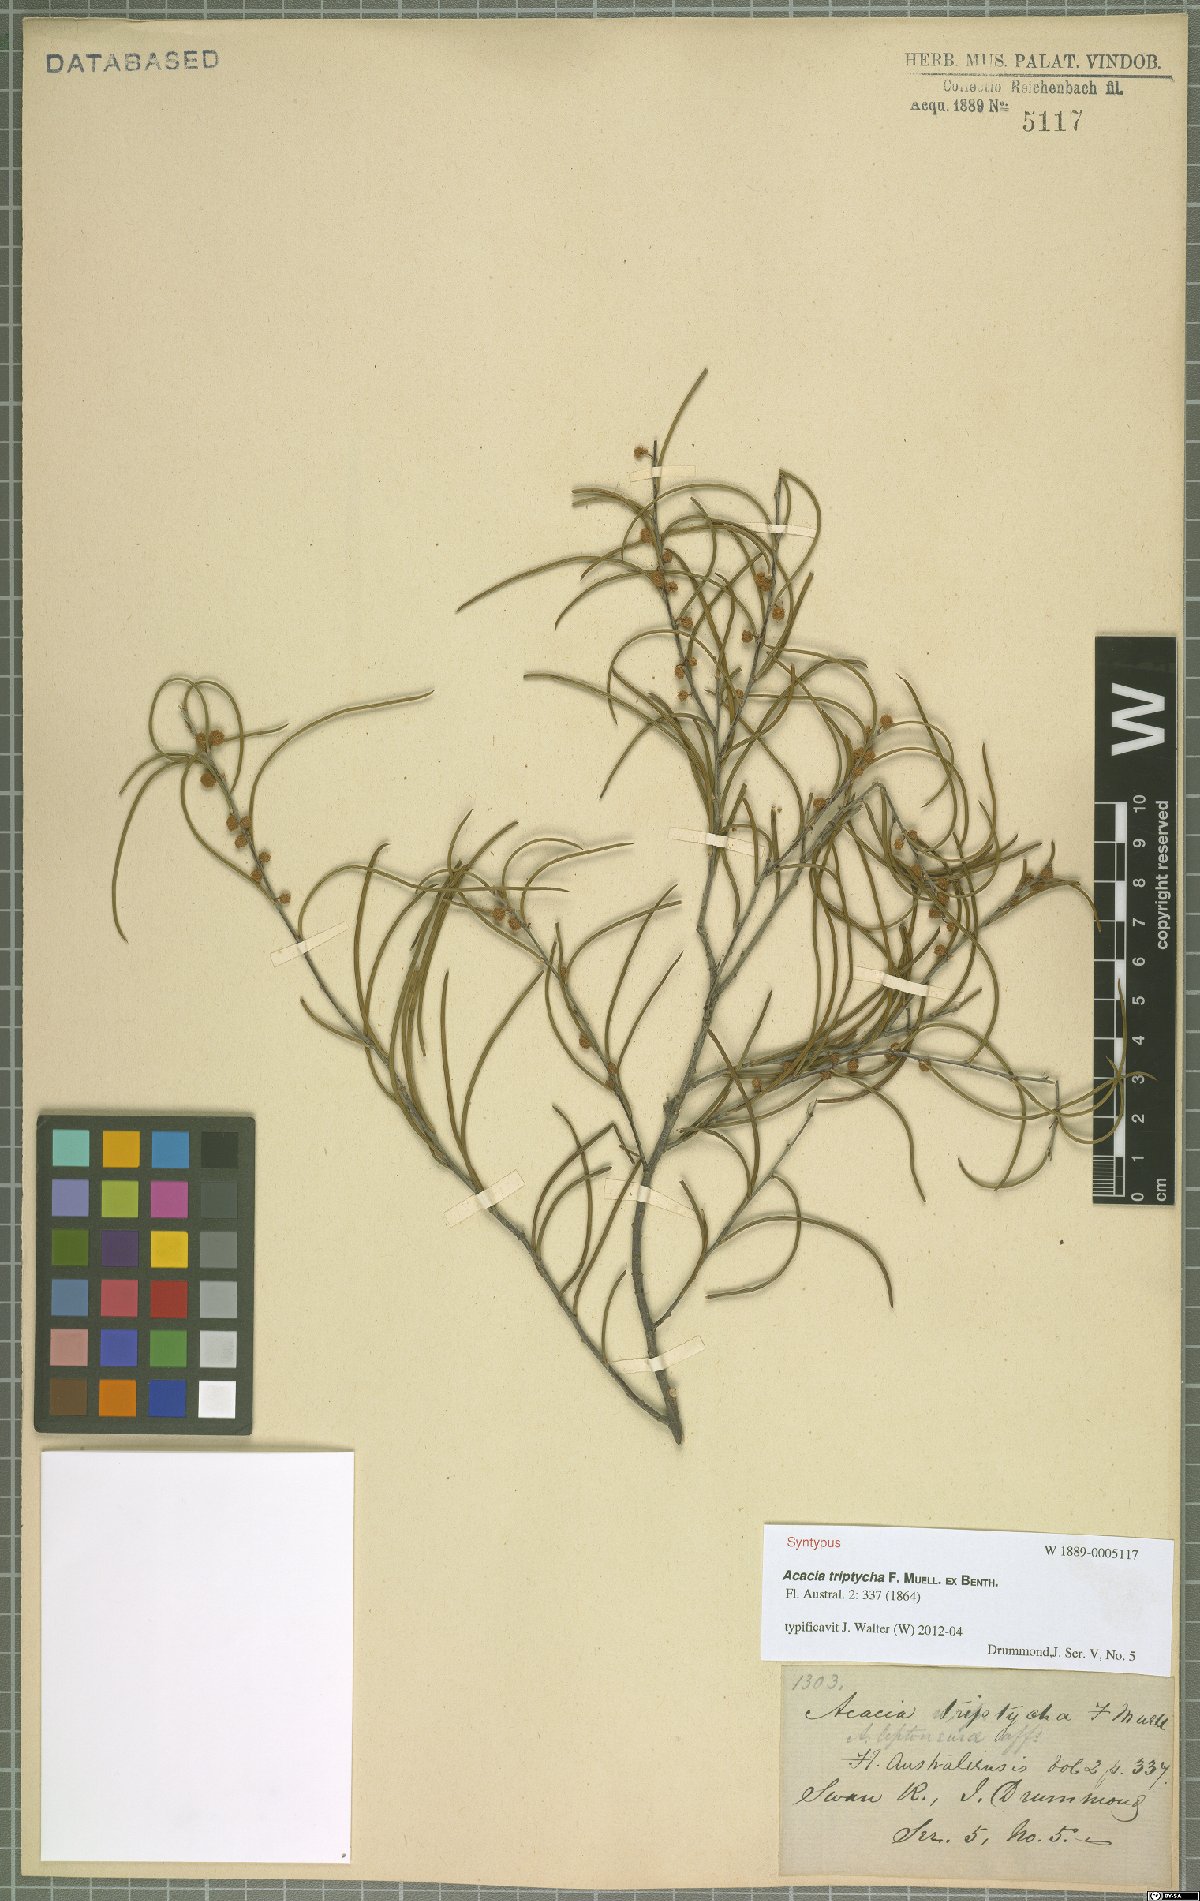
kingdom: Plantae
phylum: Tracheophyta
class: Magnoliopsida
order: Fabales
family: Fabaceae
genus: Acacia
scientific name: Acacia triptycha
